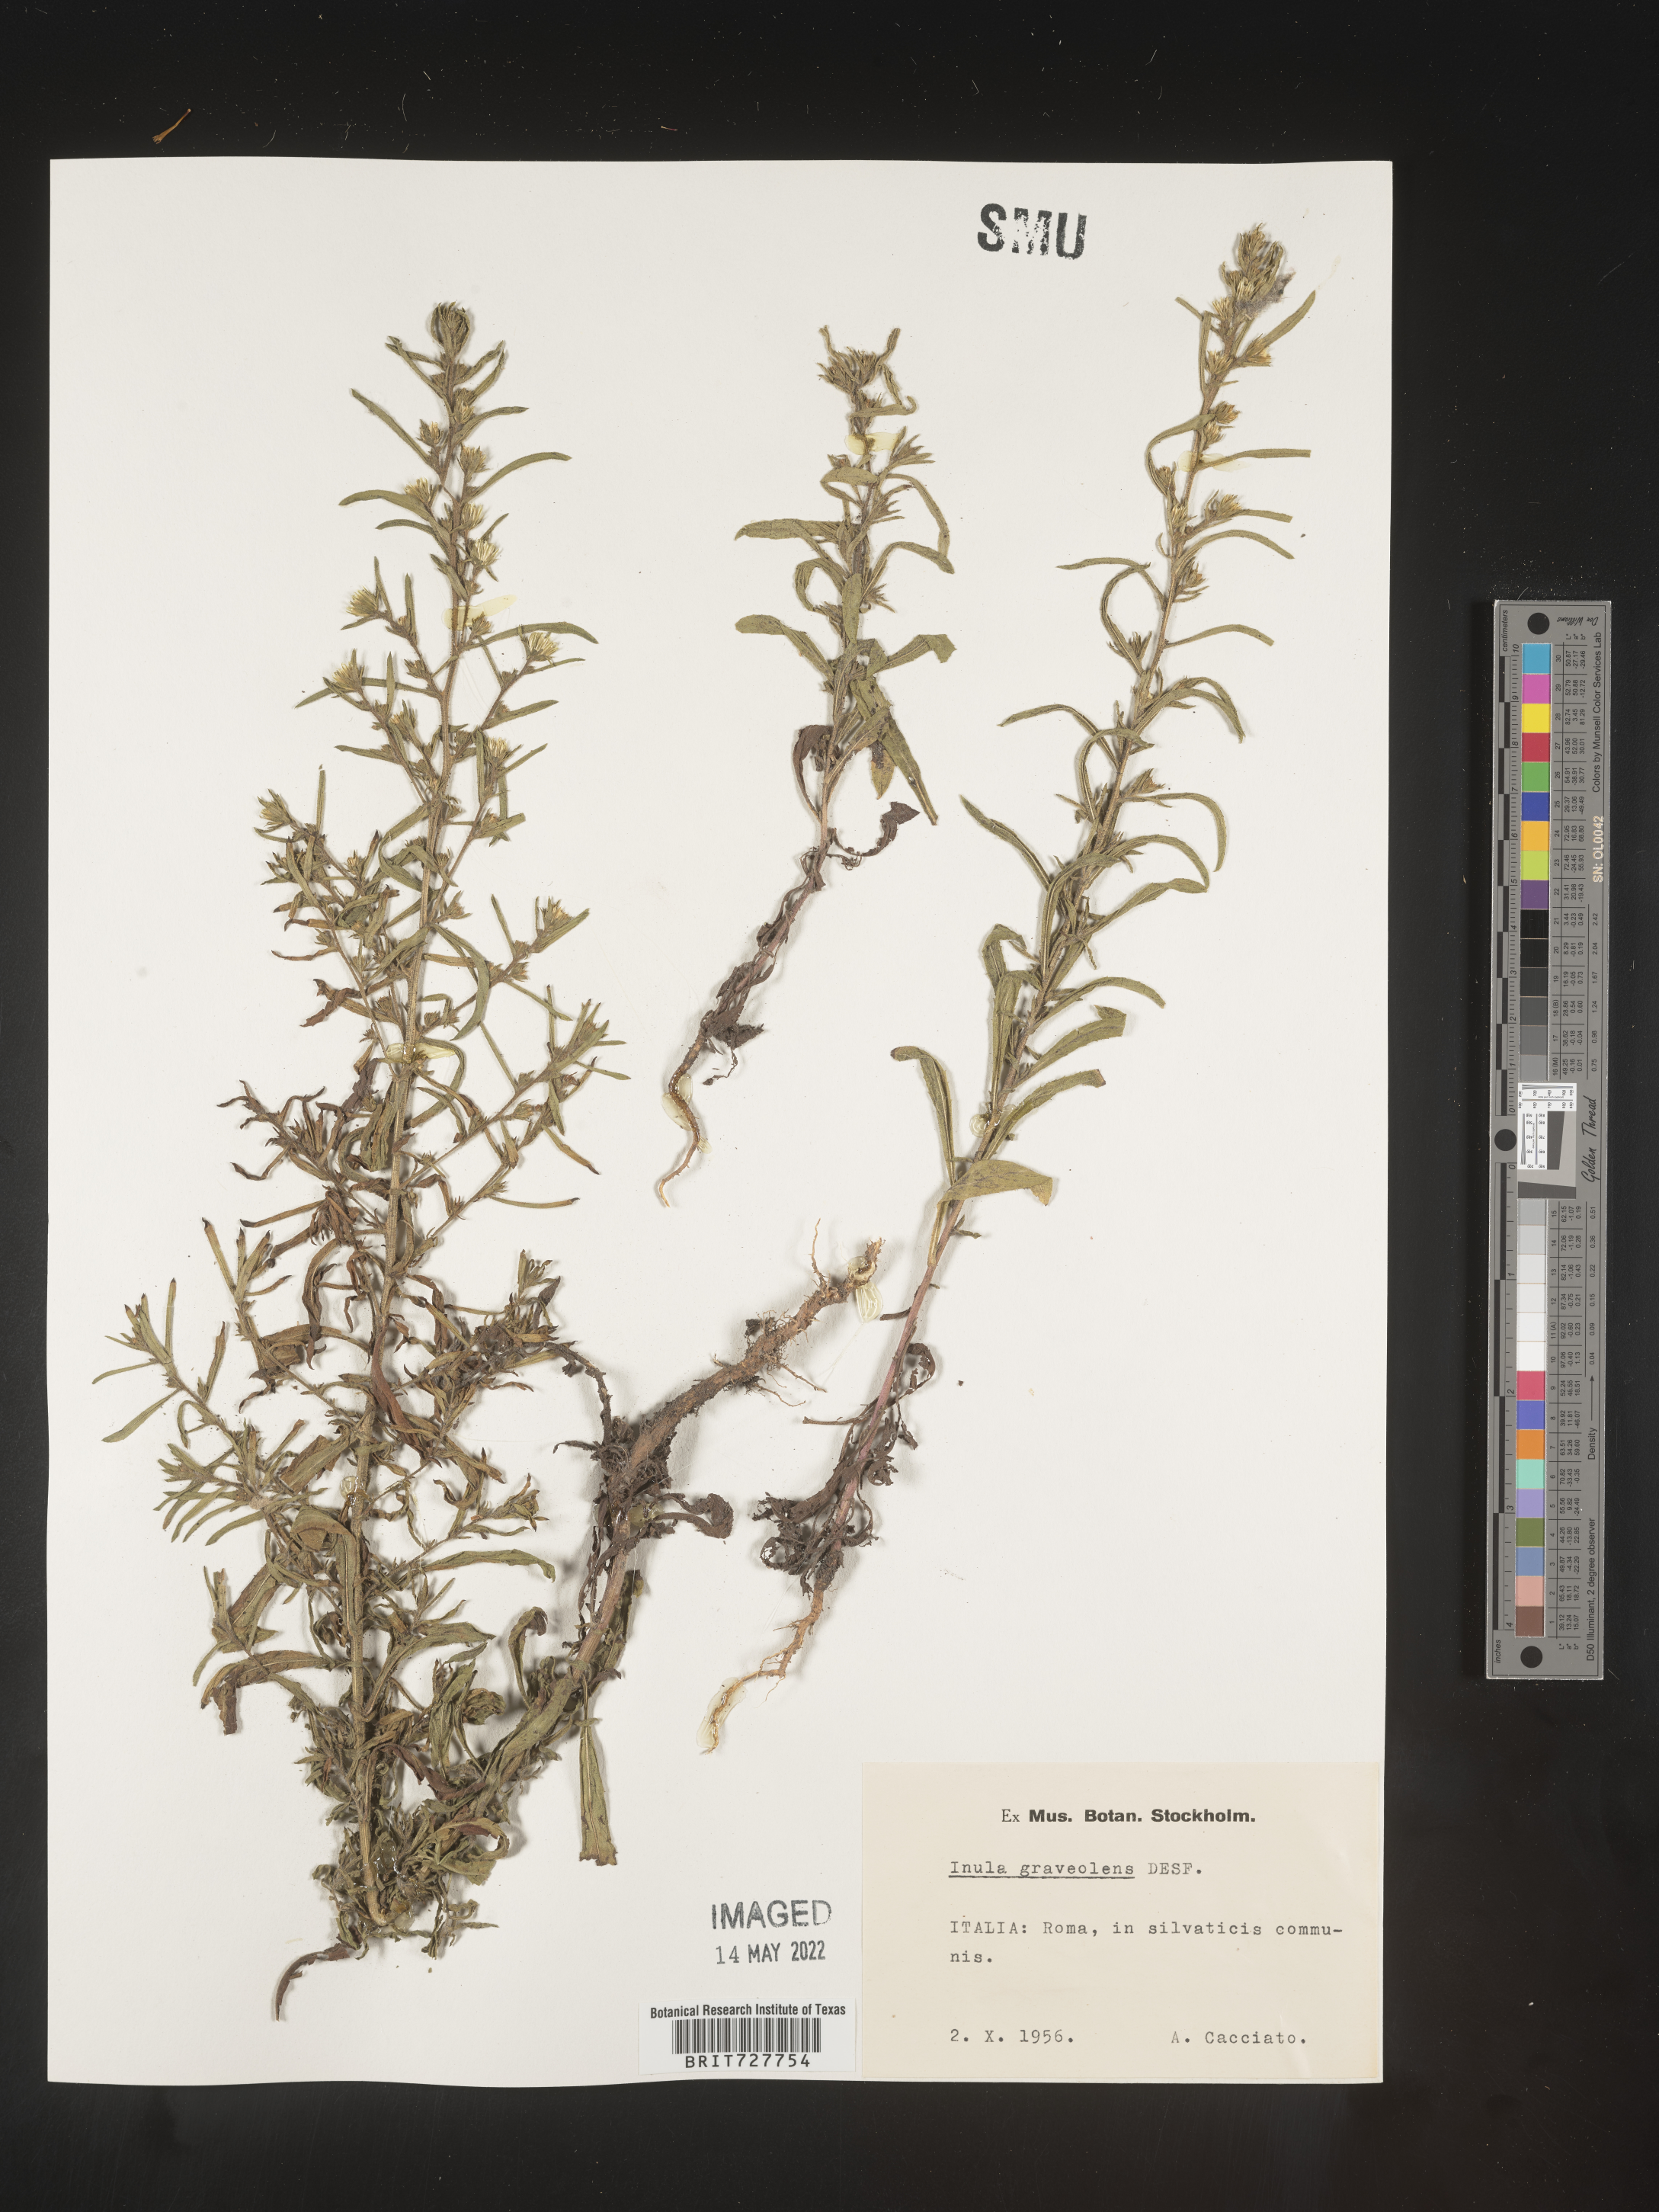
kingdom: Plantae
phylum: Tracheophyta
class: Magnoliopsida
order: Asterales
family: Asteraceae
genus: Inula
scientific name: Inula
